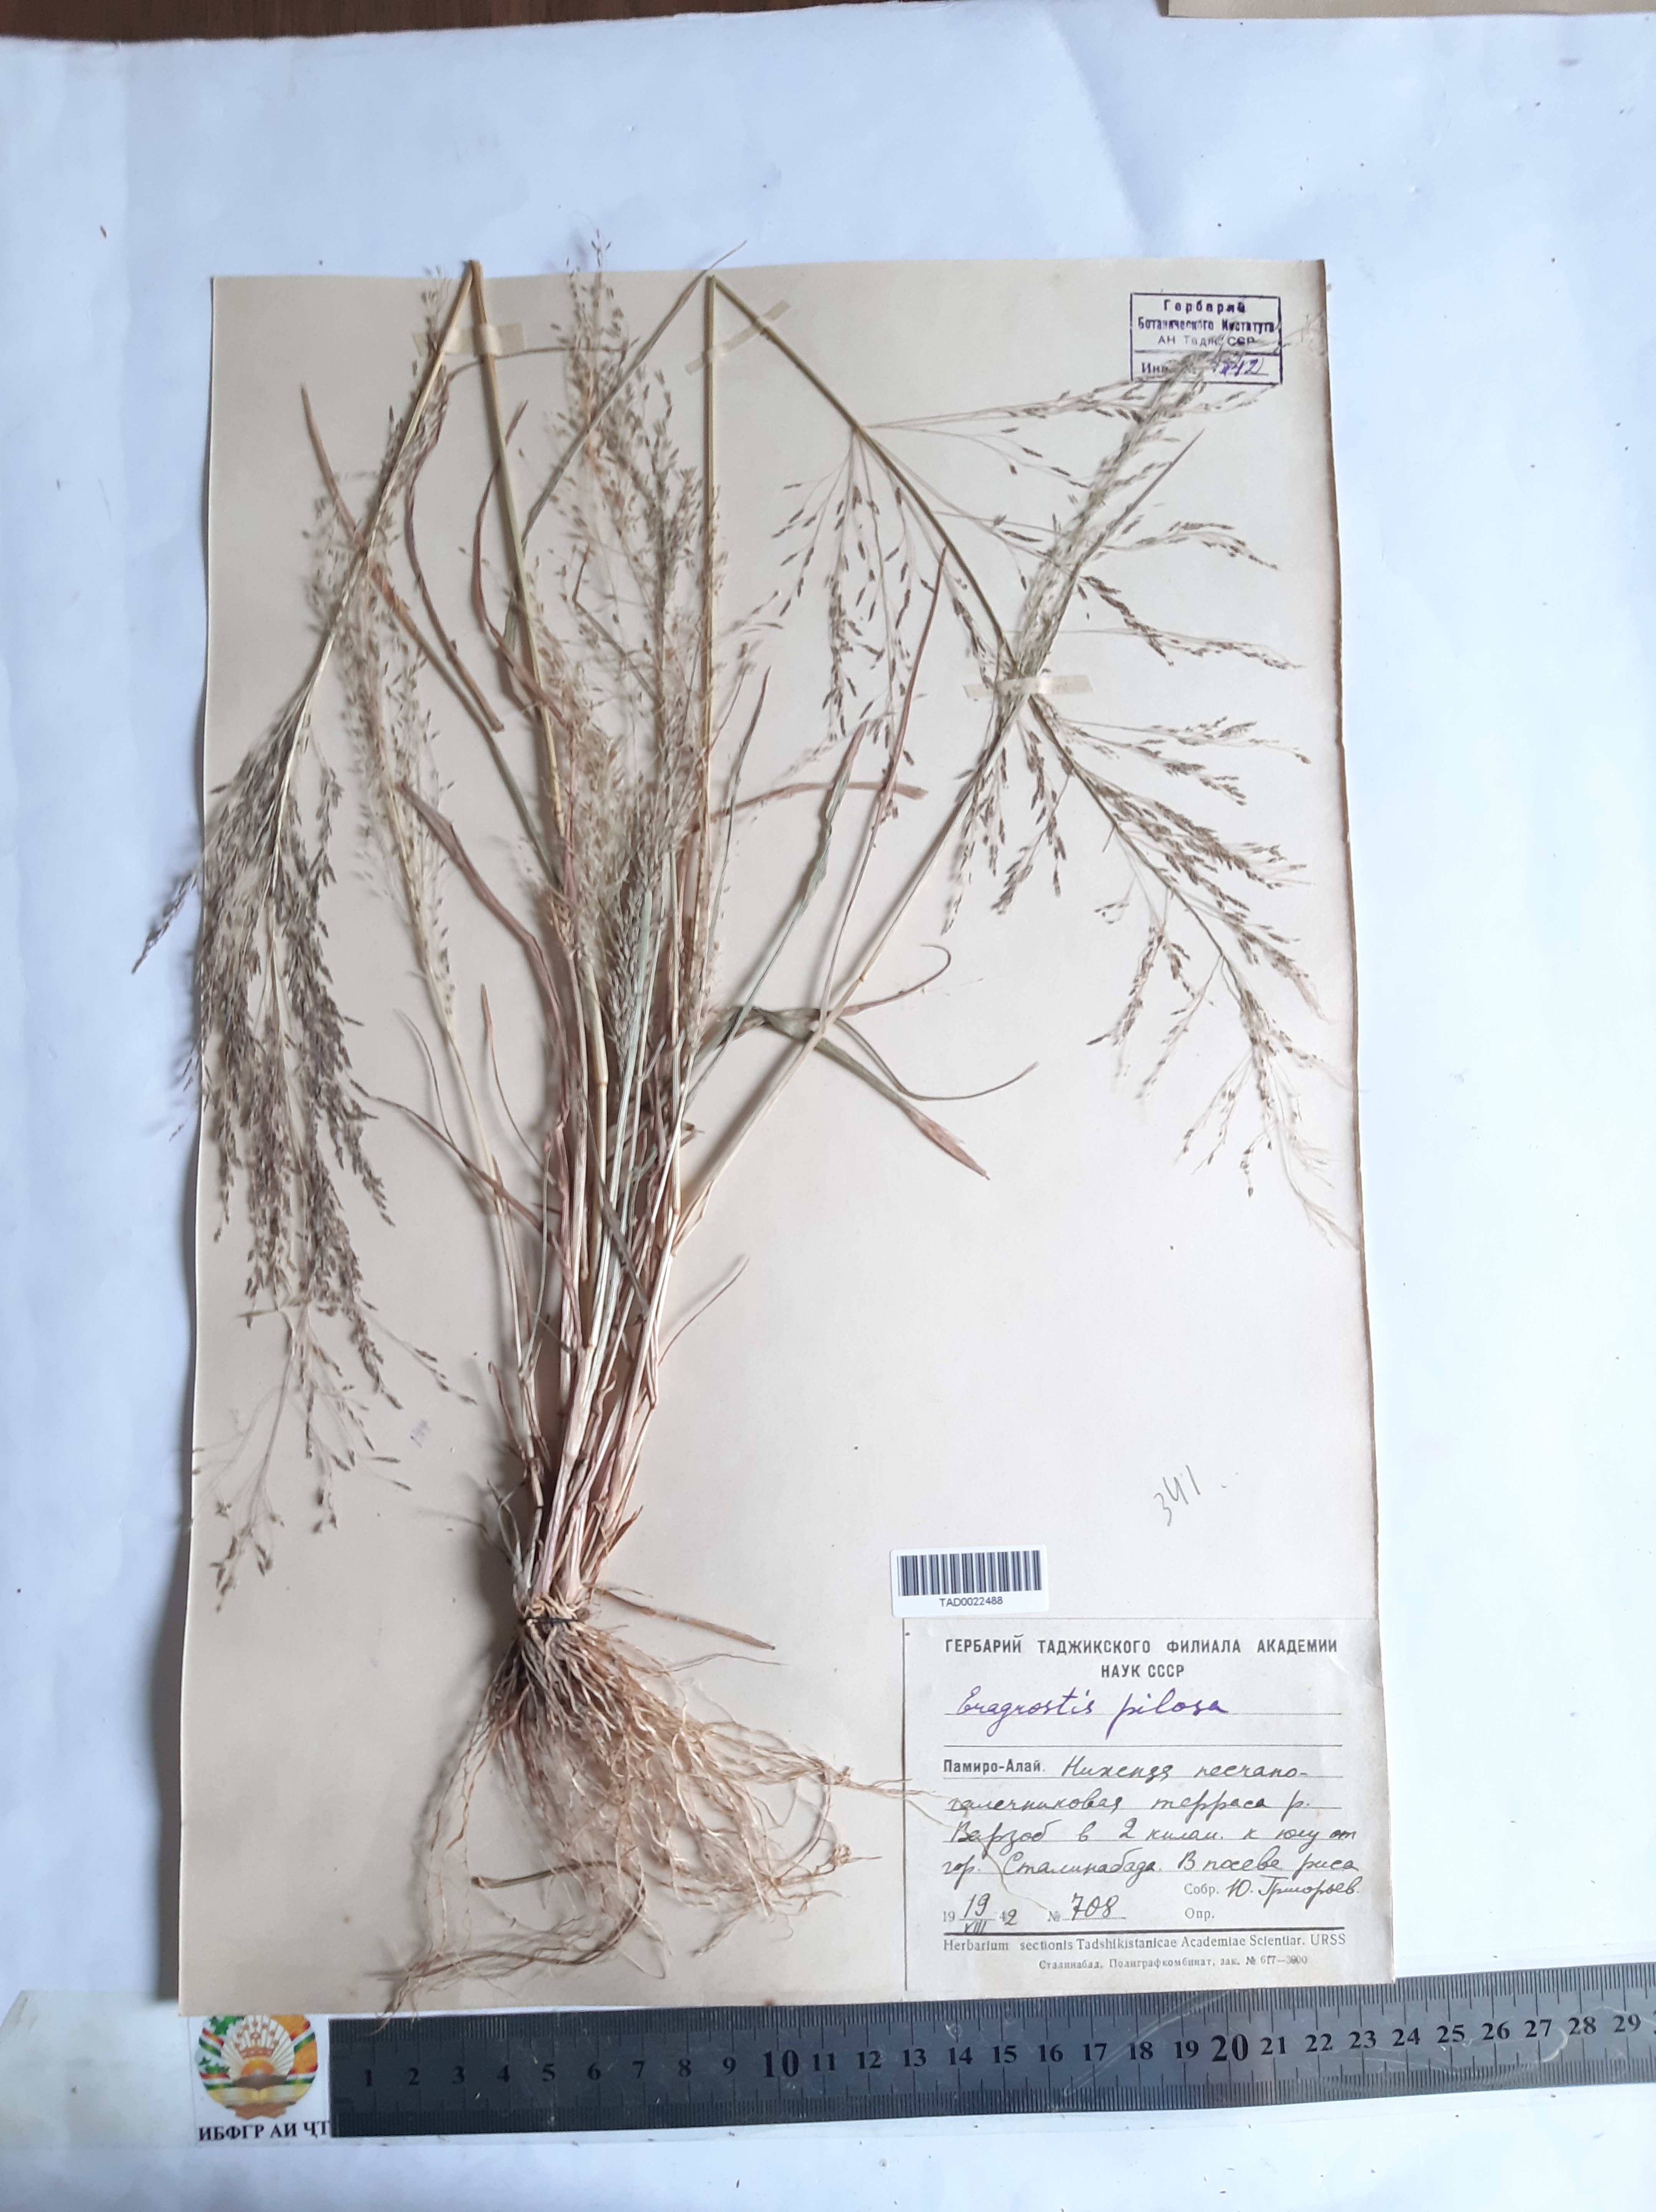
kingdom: Plantae
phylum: Tracheophyta
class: Liliopsida
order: Poales
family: Poaceae
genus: Eragrostis
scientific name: Eragrostis pilosa
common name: Indian lovegrass
